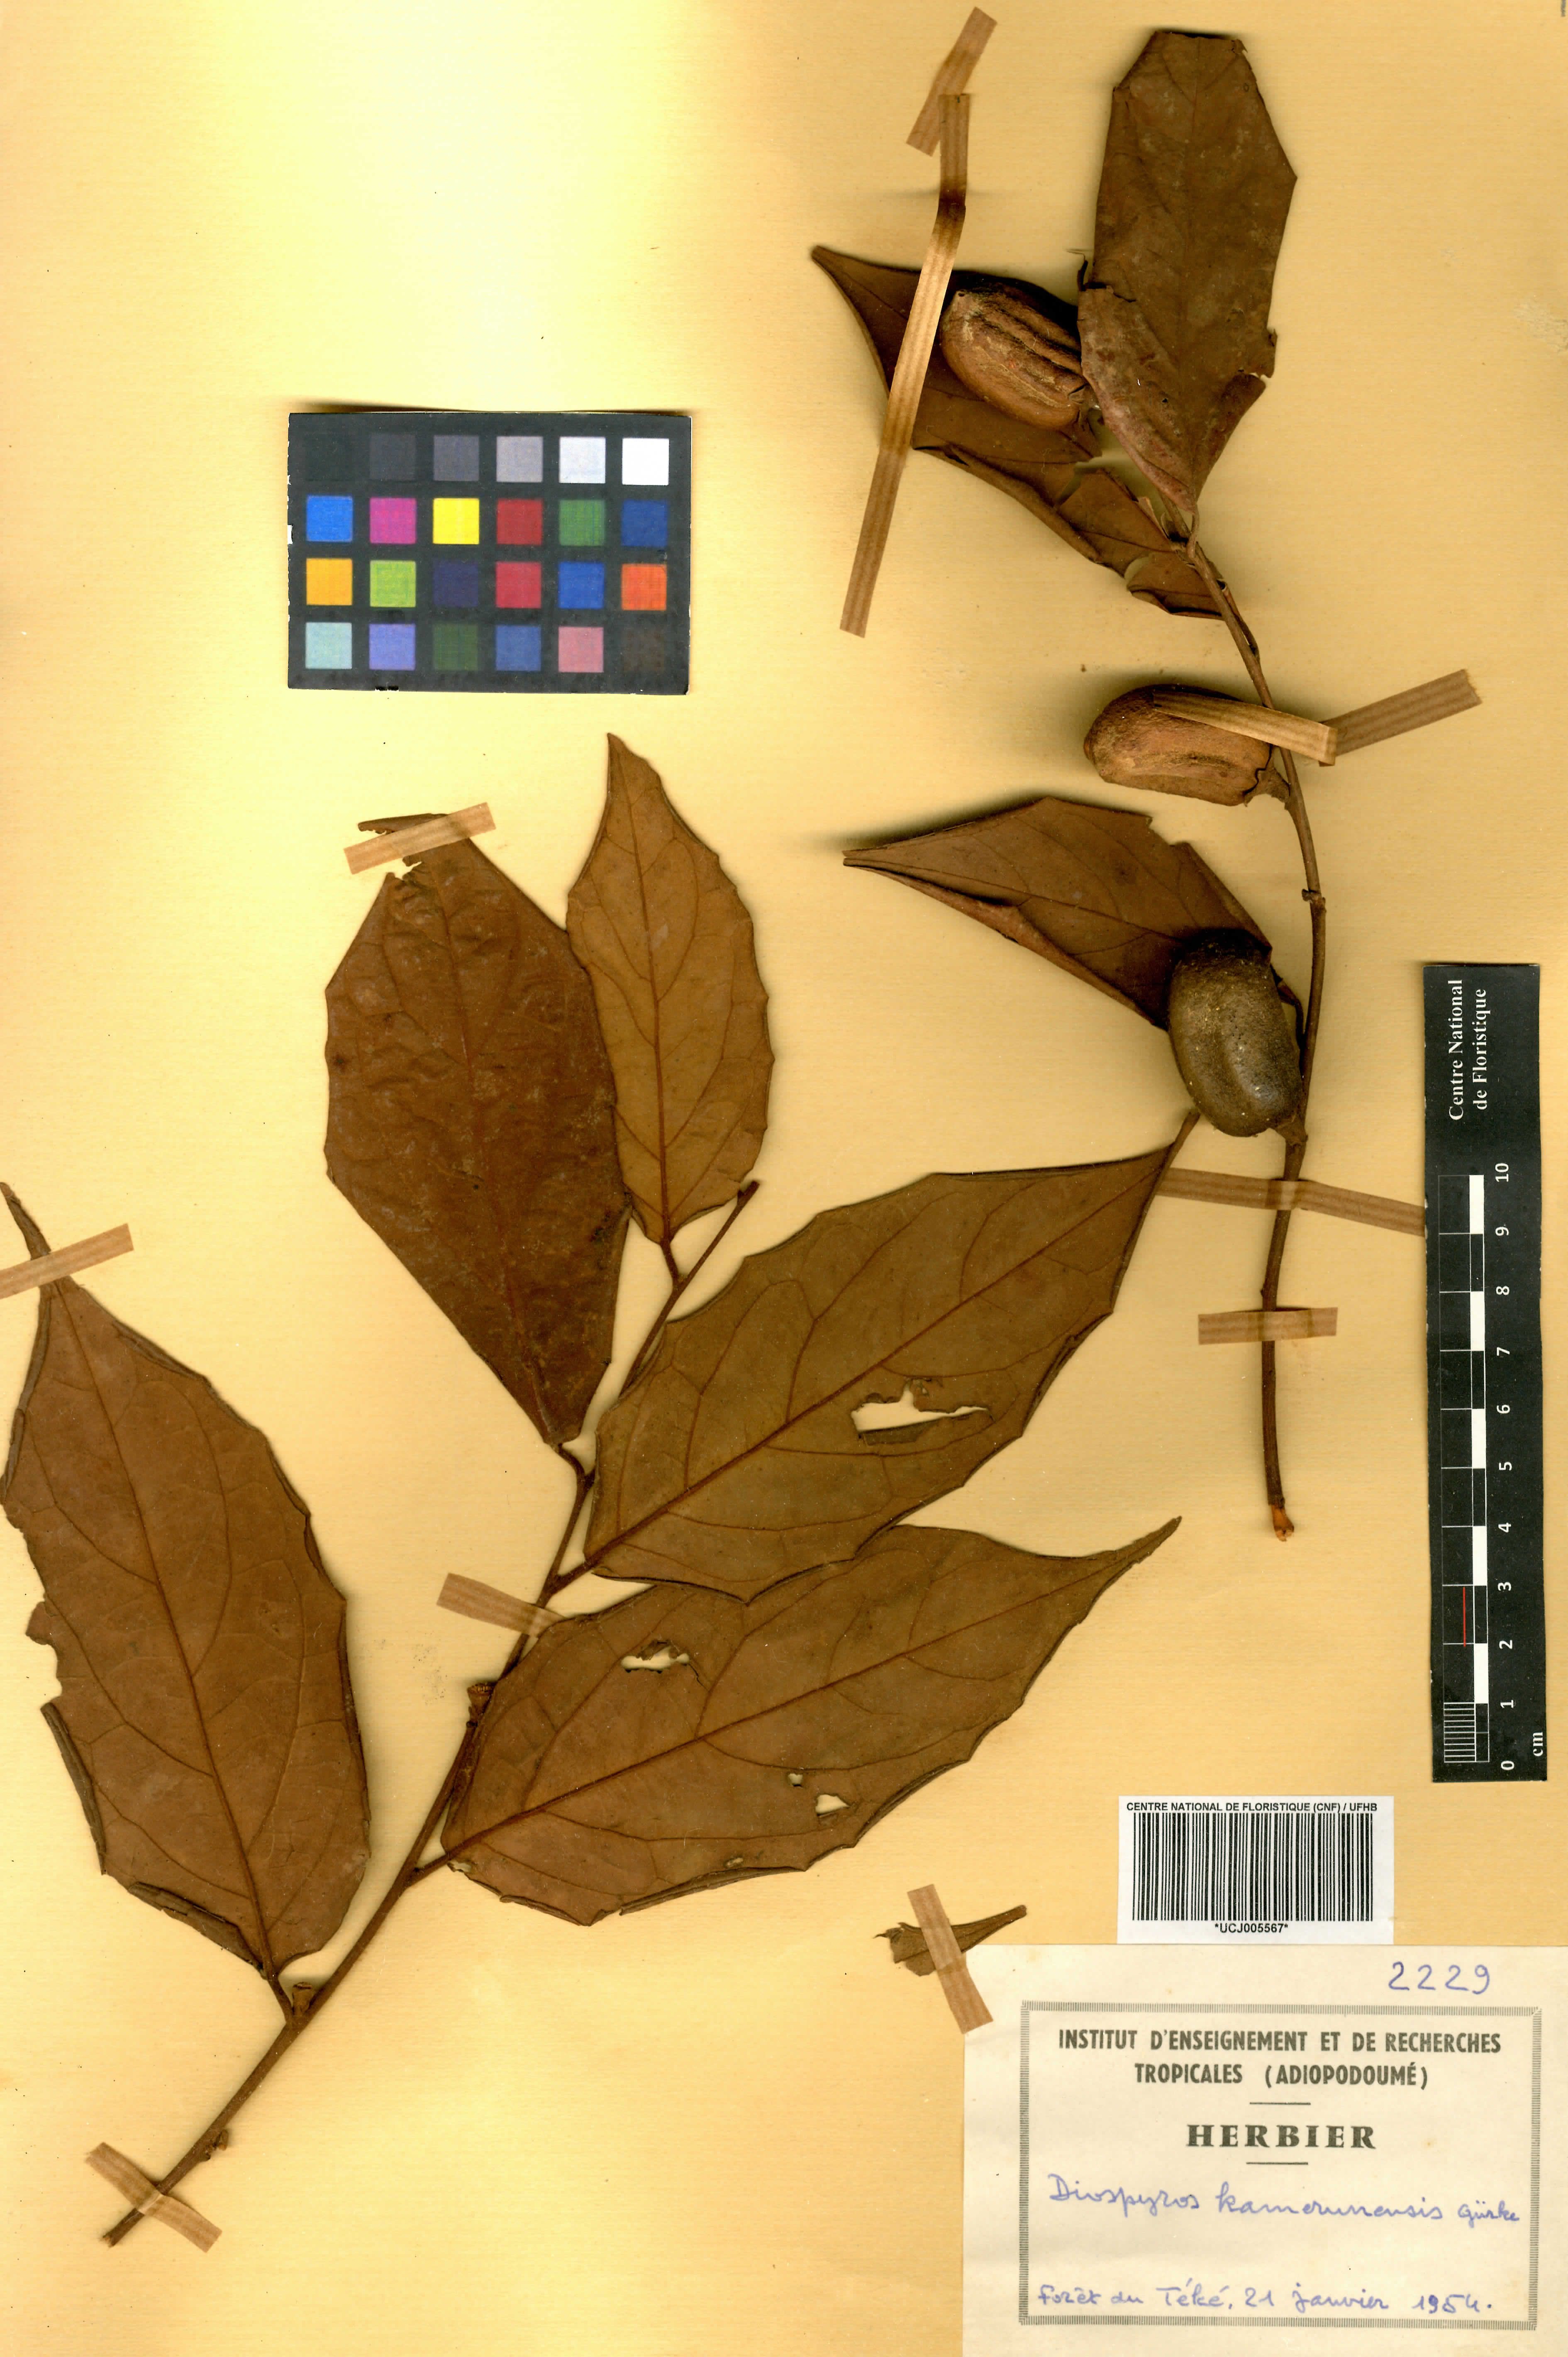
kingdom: Plantae
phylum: Tracheophyta
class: Magnoliopsida
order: Ericales
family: Ebenaceae
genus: Diospyros
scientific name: Diospyros kamerunensis
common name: African ebony
